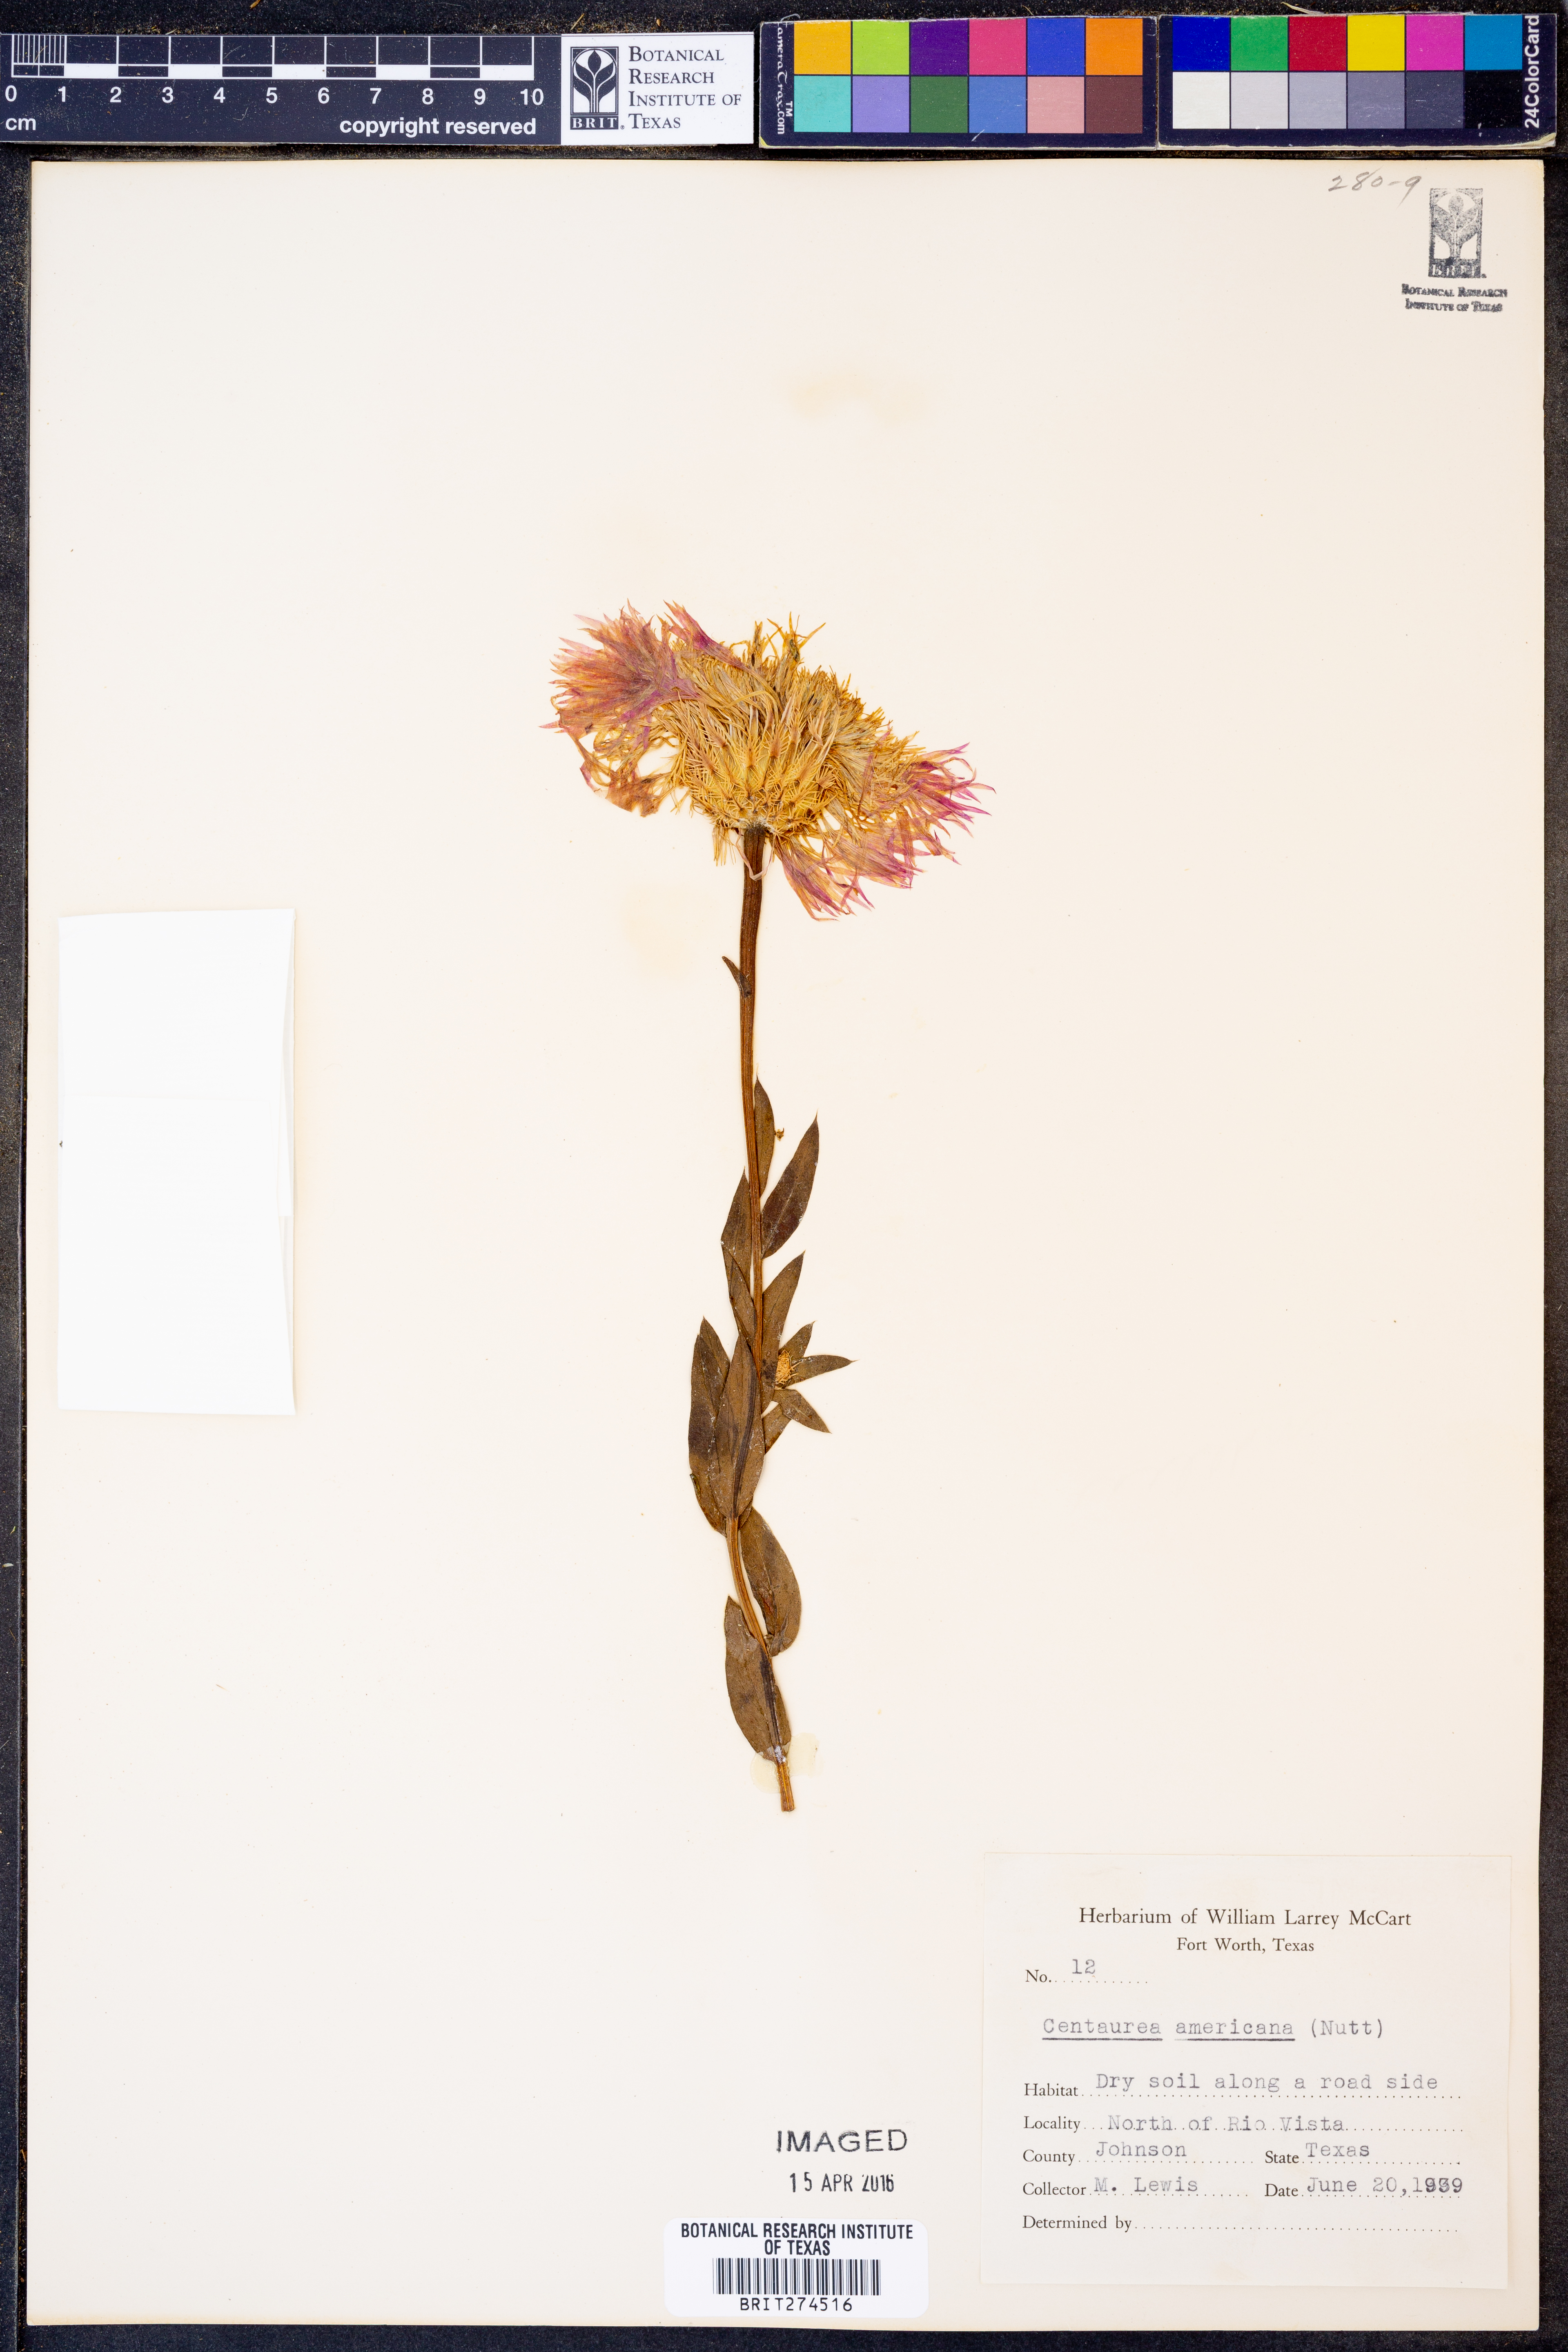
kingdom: Plantae
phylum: Tracheophyta
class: Magnoliopsida
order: Asterales
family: Asteraceae
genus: Plectocephalus
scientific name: Plectocephalus americanus
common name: American basket-flower
